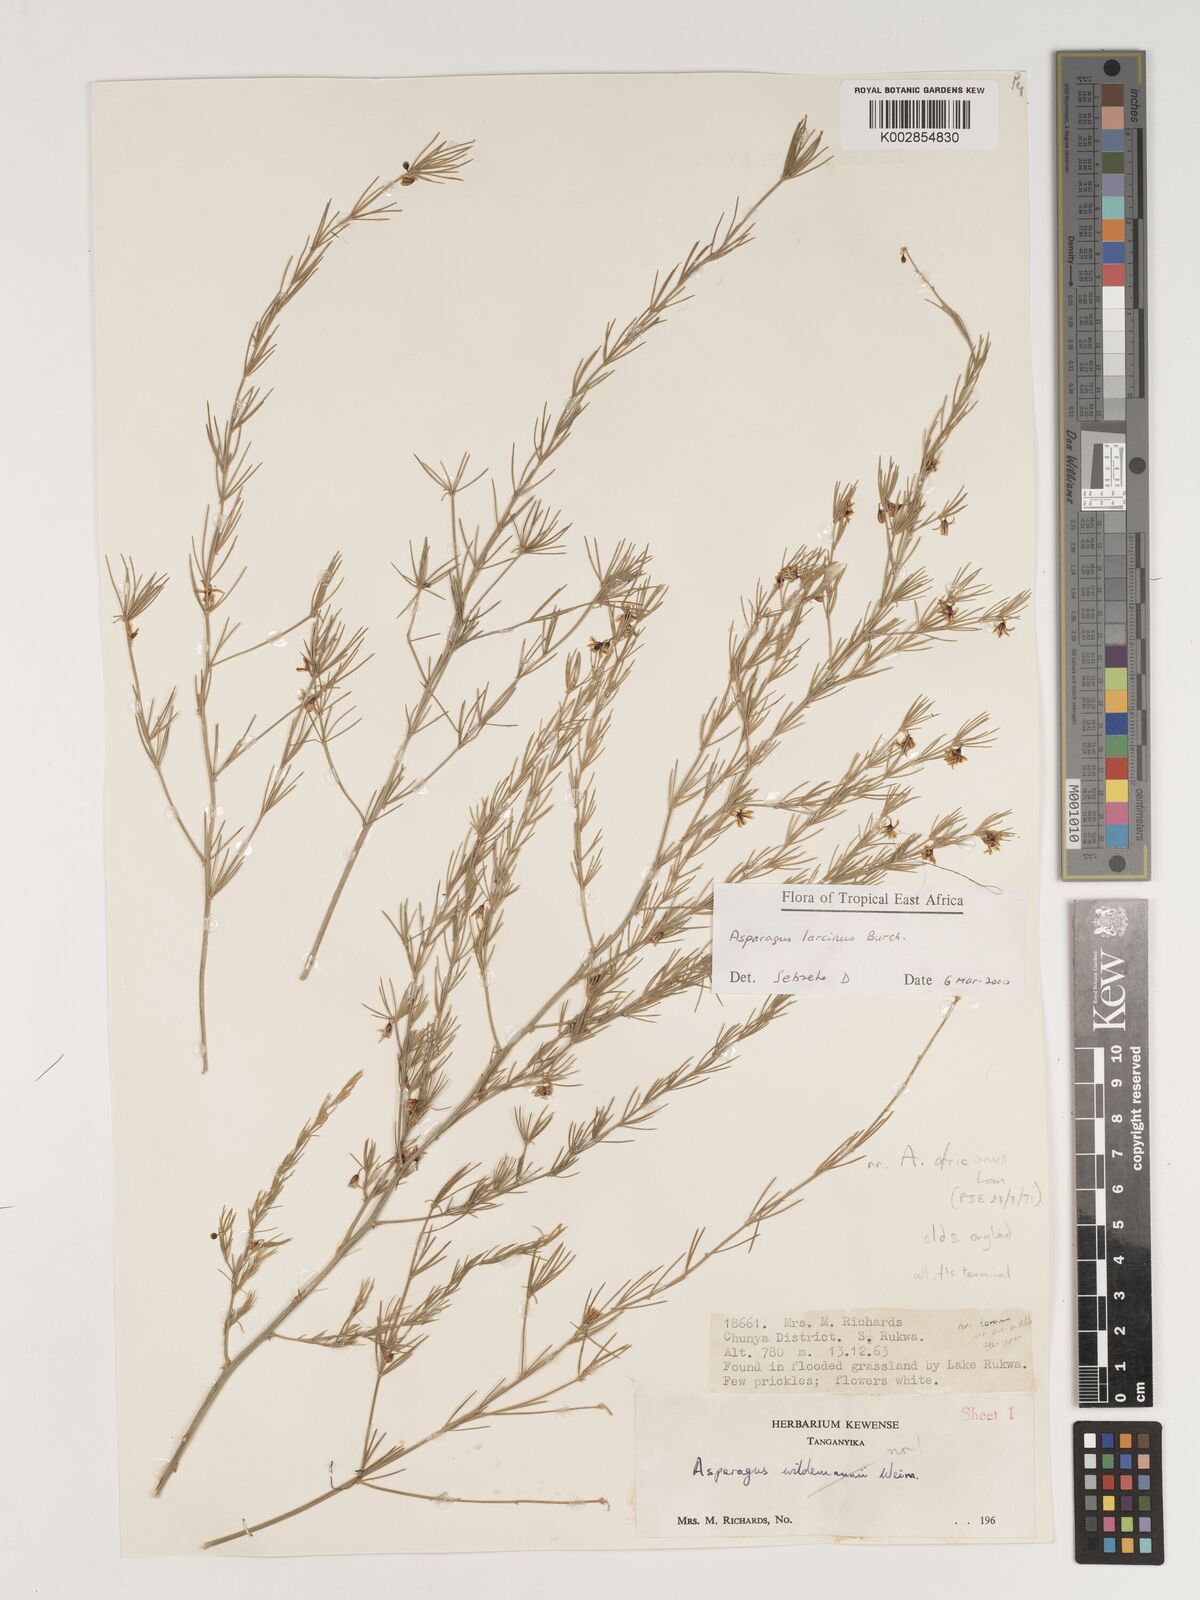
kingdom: Plantae
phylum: Tracheophyta
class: Liliopsida
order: Asparagales
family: Asparagaceae
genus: Asparagus
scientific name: Asparagus laricinus
